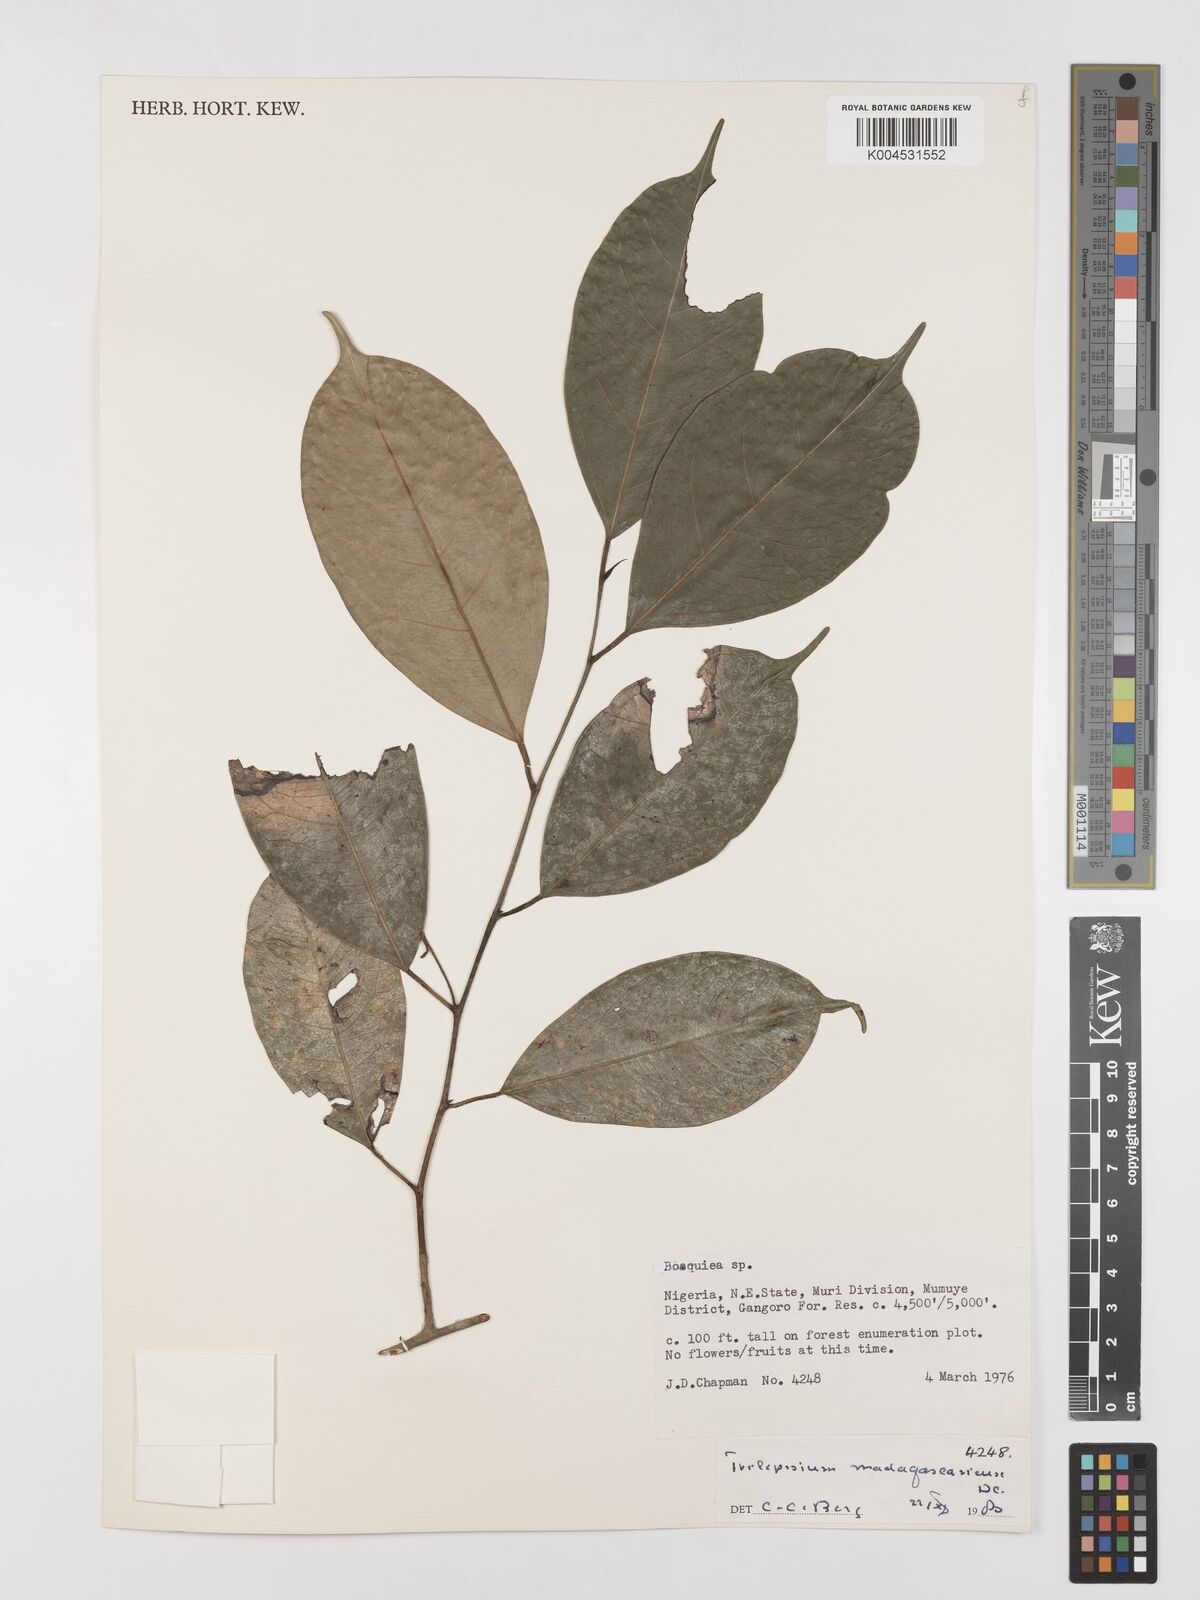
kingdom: Plantae
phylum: Tracheophyta
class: Magnoliopsida
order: Rosales
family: Moraceae
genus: Trilepisium
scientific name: Trilepisium madagascariense
